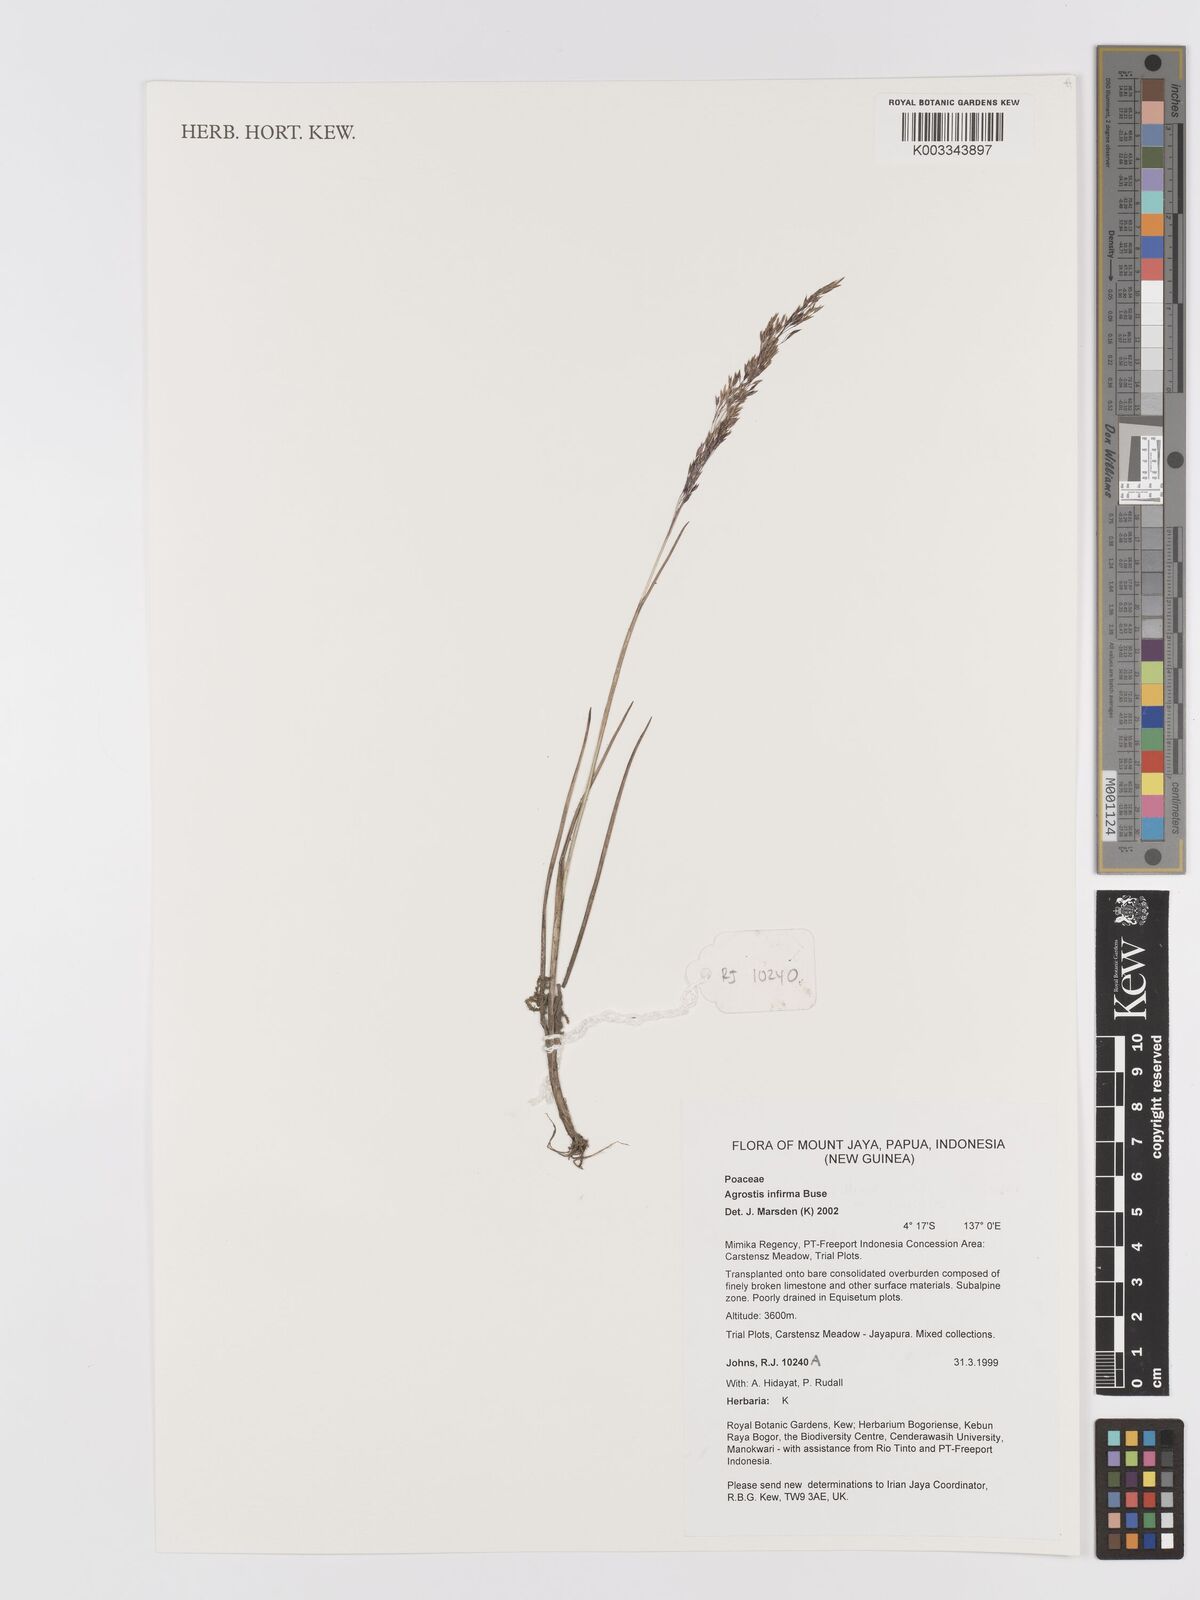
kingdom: Plantae
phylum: Tracheophyta
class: Liliopsida
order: Poales
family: Poaceae
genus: Agrostis
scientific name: Agrostis infirma
